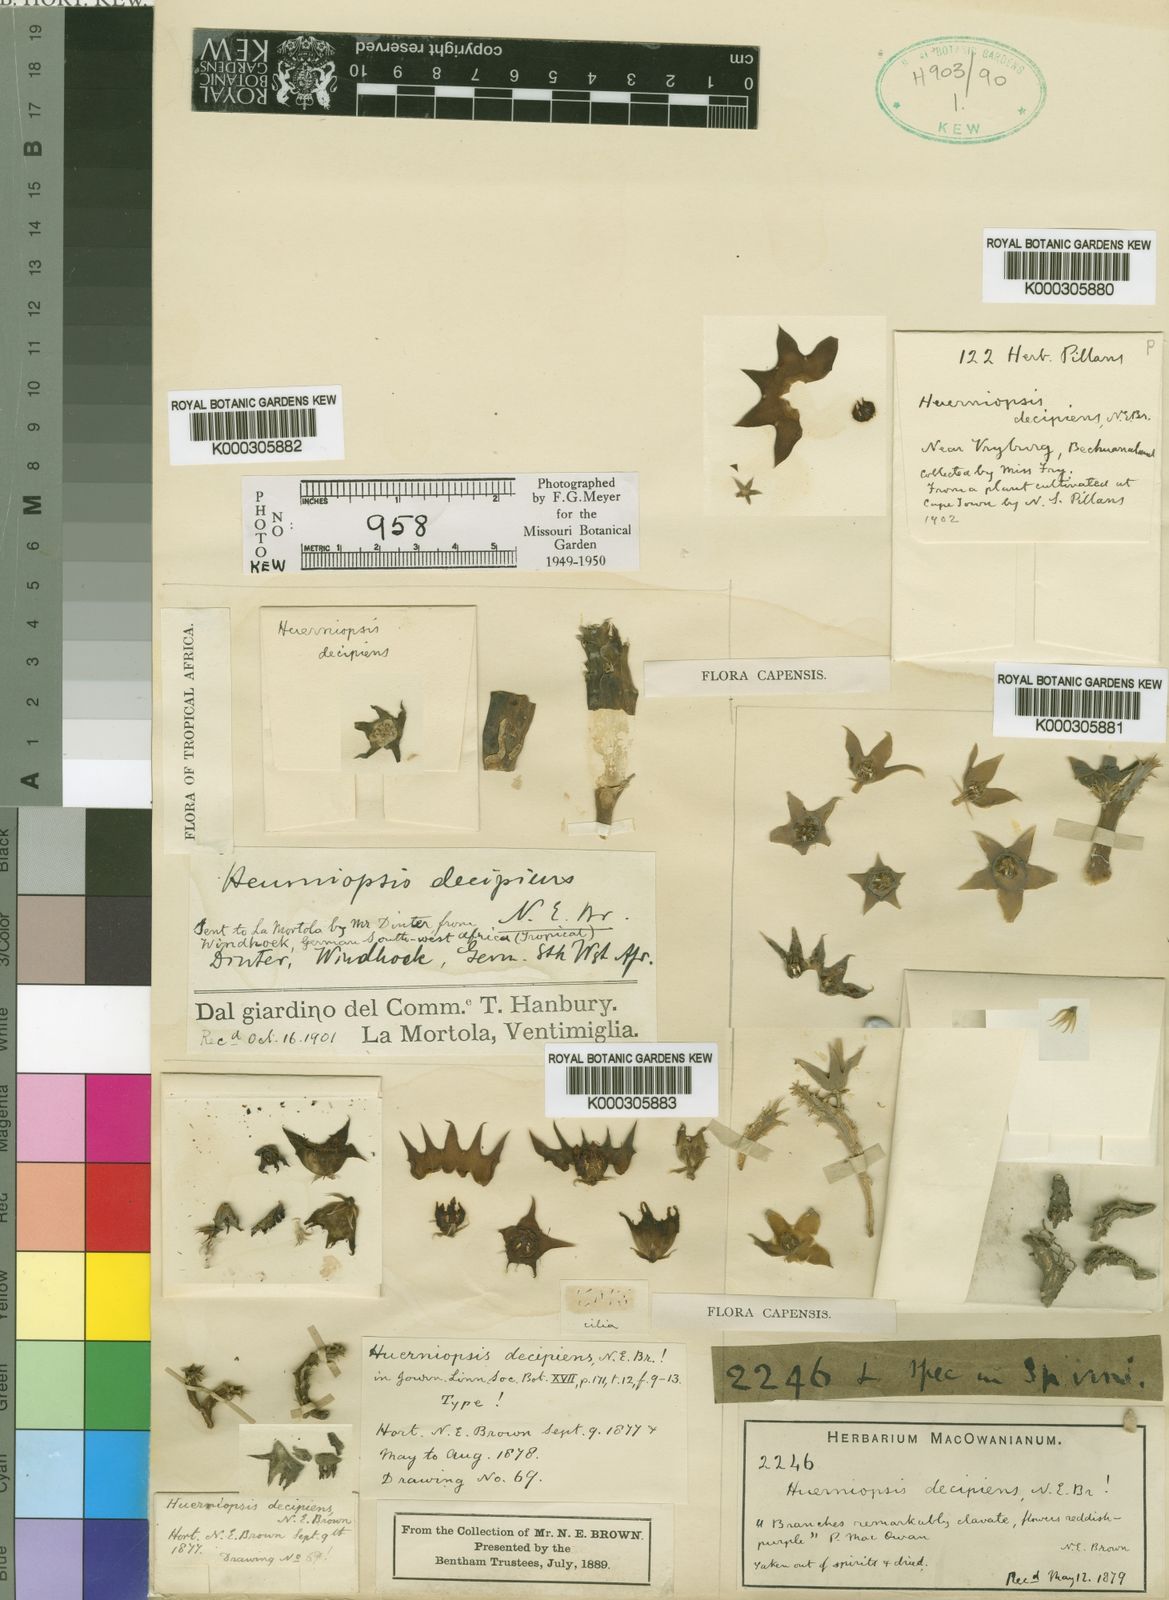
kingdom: Plantae
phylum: Tracheophyta
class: Magnoliopsida
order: Gentianales
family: Apocynaceae
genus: Ceropegia
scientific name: Ceropegia decipiens
